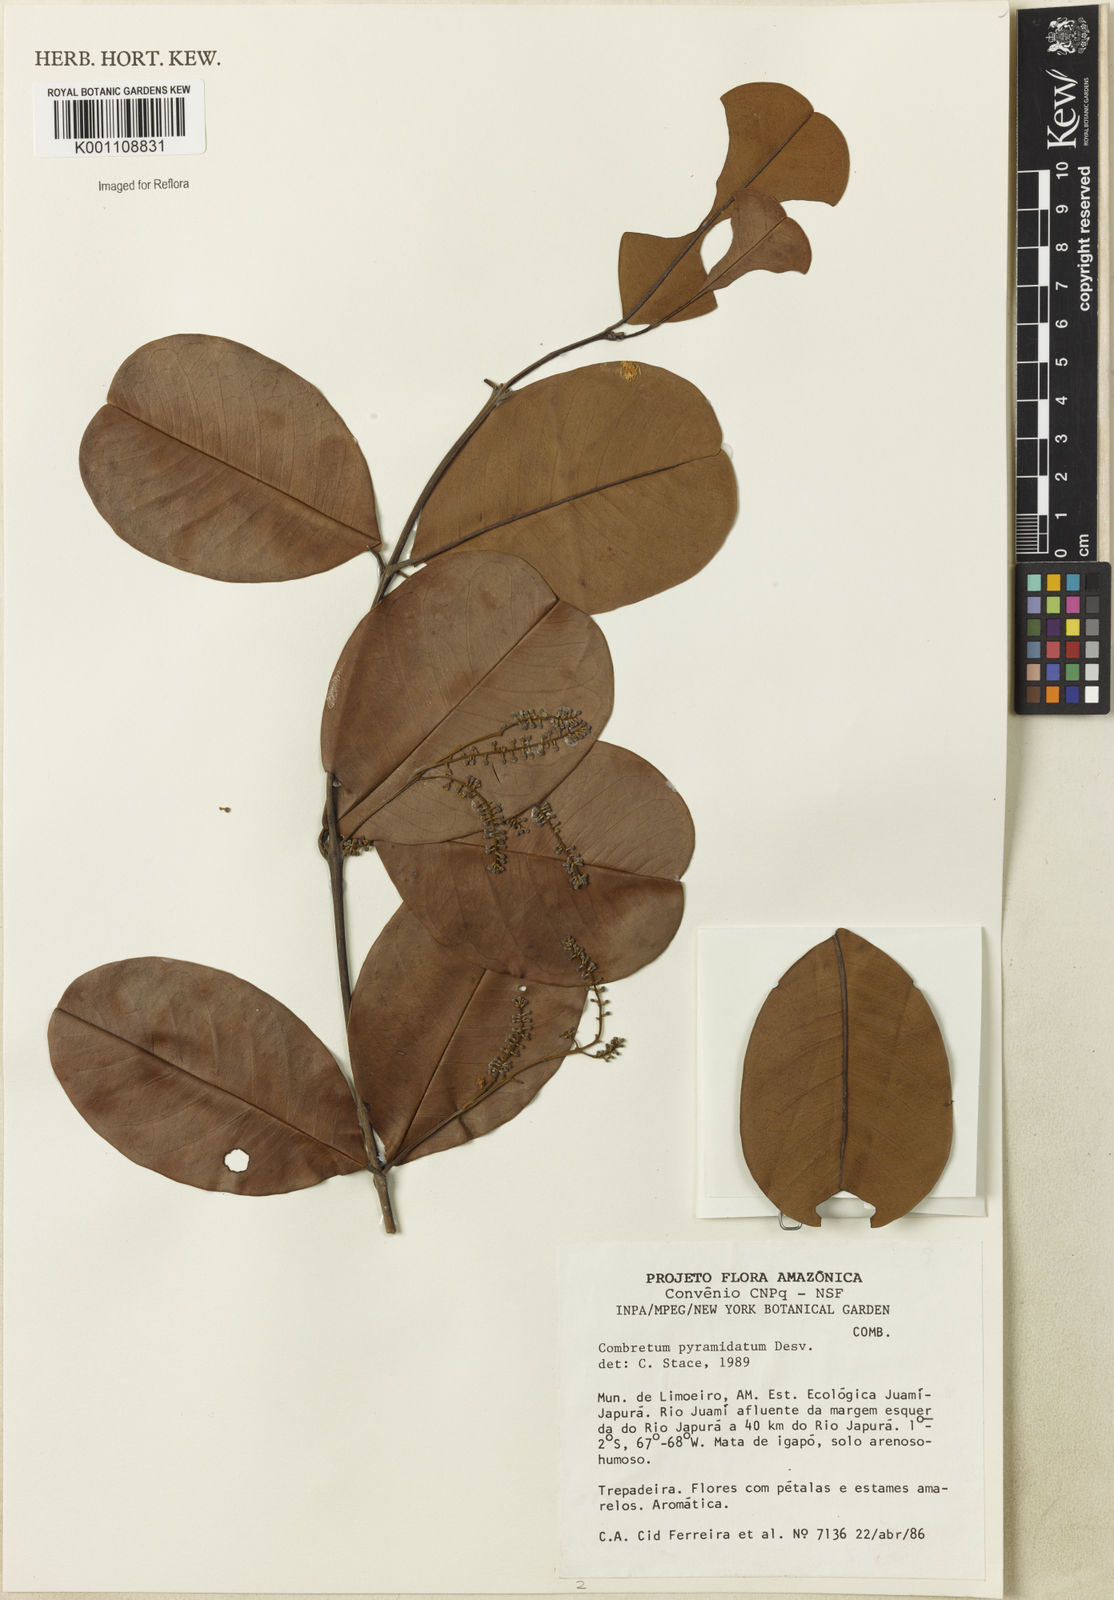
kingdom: Plantae
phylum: Tracheophyta
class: Magnoliopsida
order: Myrtales
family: Combretaceae
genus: Combretum
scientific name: Combretum pyramidatum
